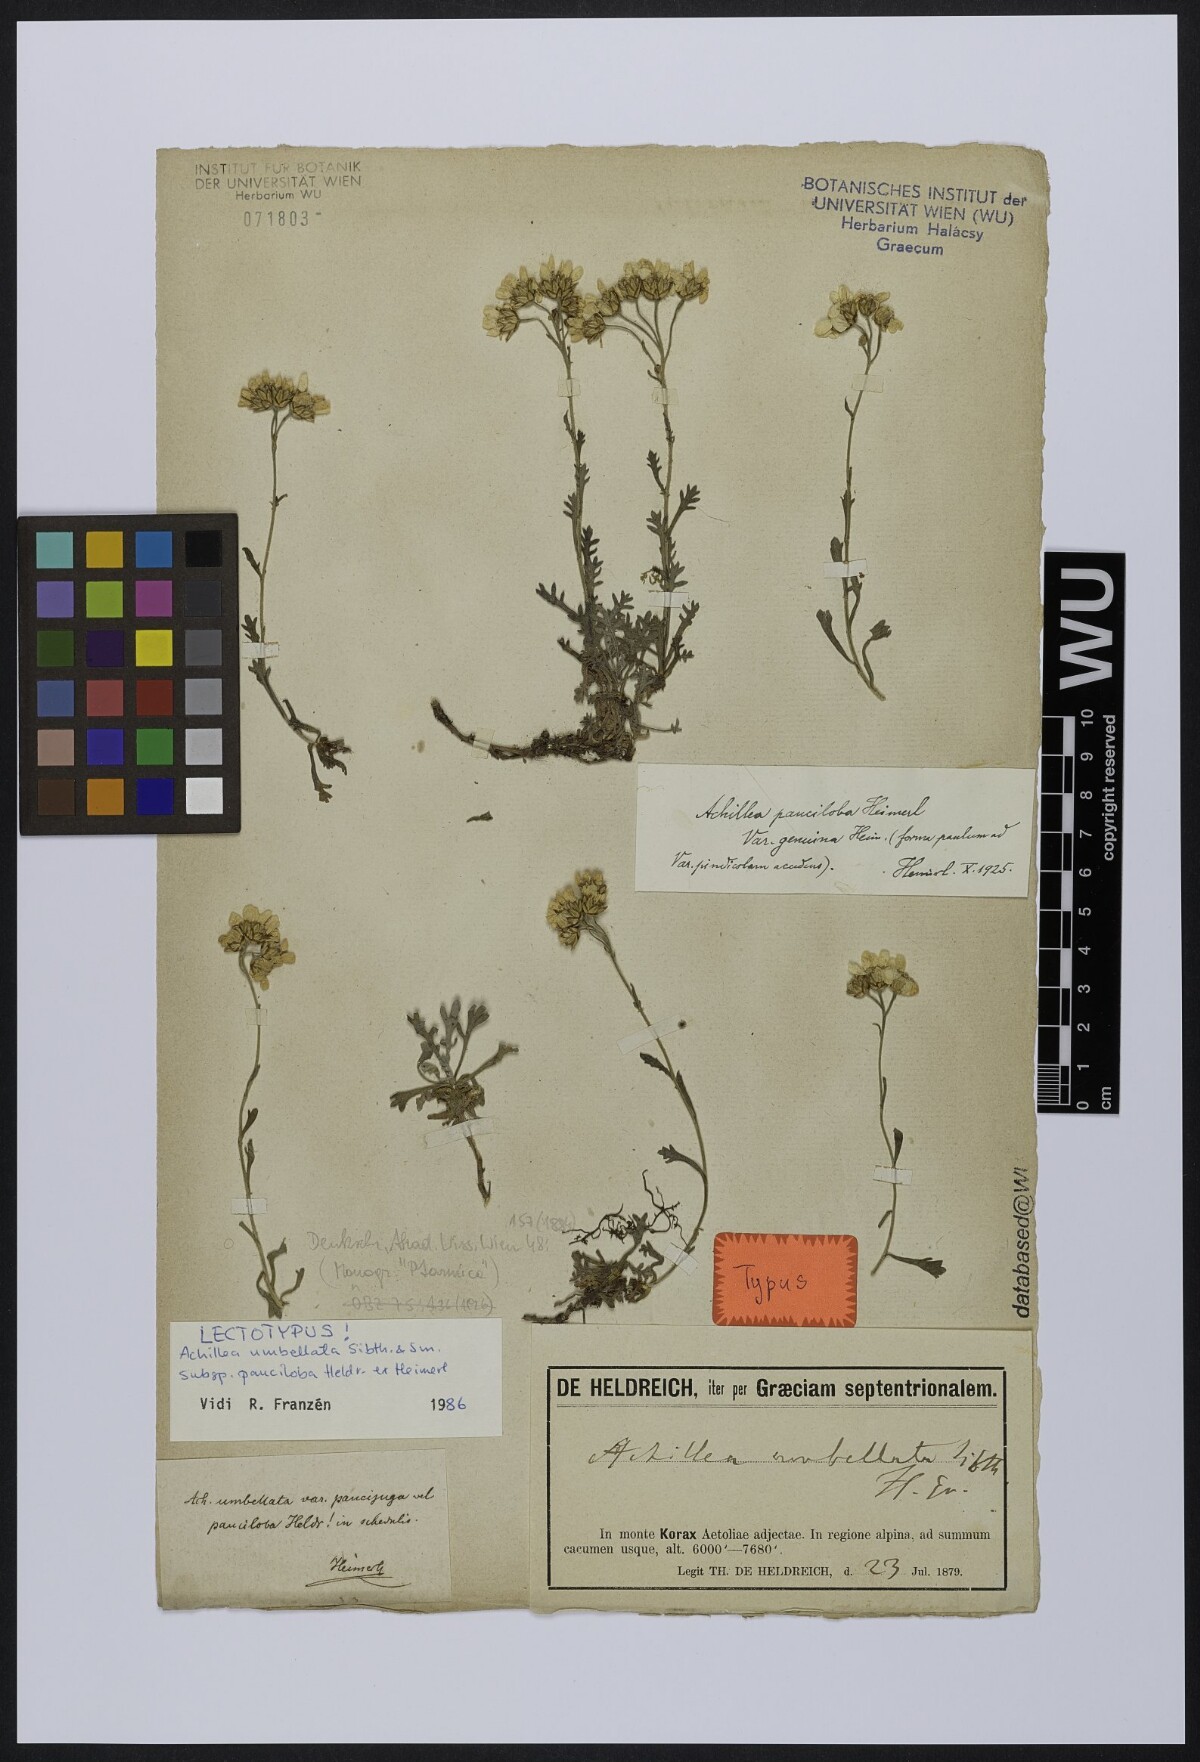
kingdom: Plantae
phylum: Tracheophyta
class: Magnoliopsida
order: Asterales
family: Asteraceae
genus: Achillea
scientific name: Achillea umbellata
